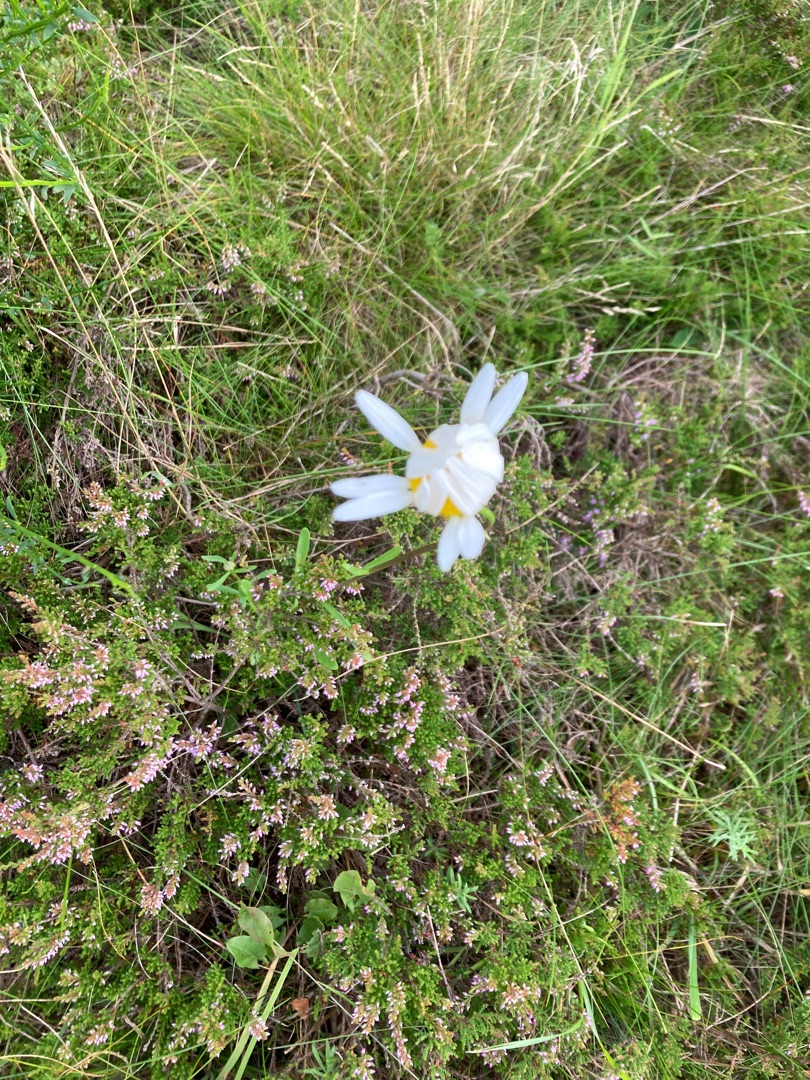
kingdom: Plantae
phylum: Tracheophyta
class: Magnoliopsida
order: Asterales
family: Asteraceae
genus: Leucanthemum
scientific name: Leucanthemum vulgare
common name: Hvid okseøje
